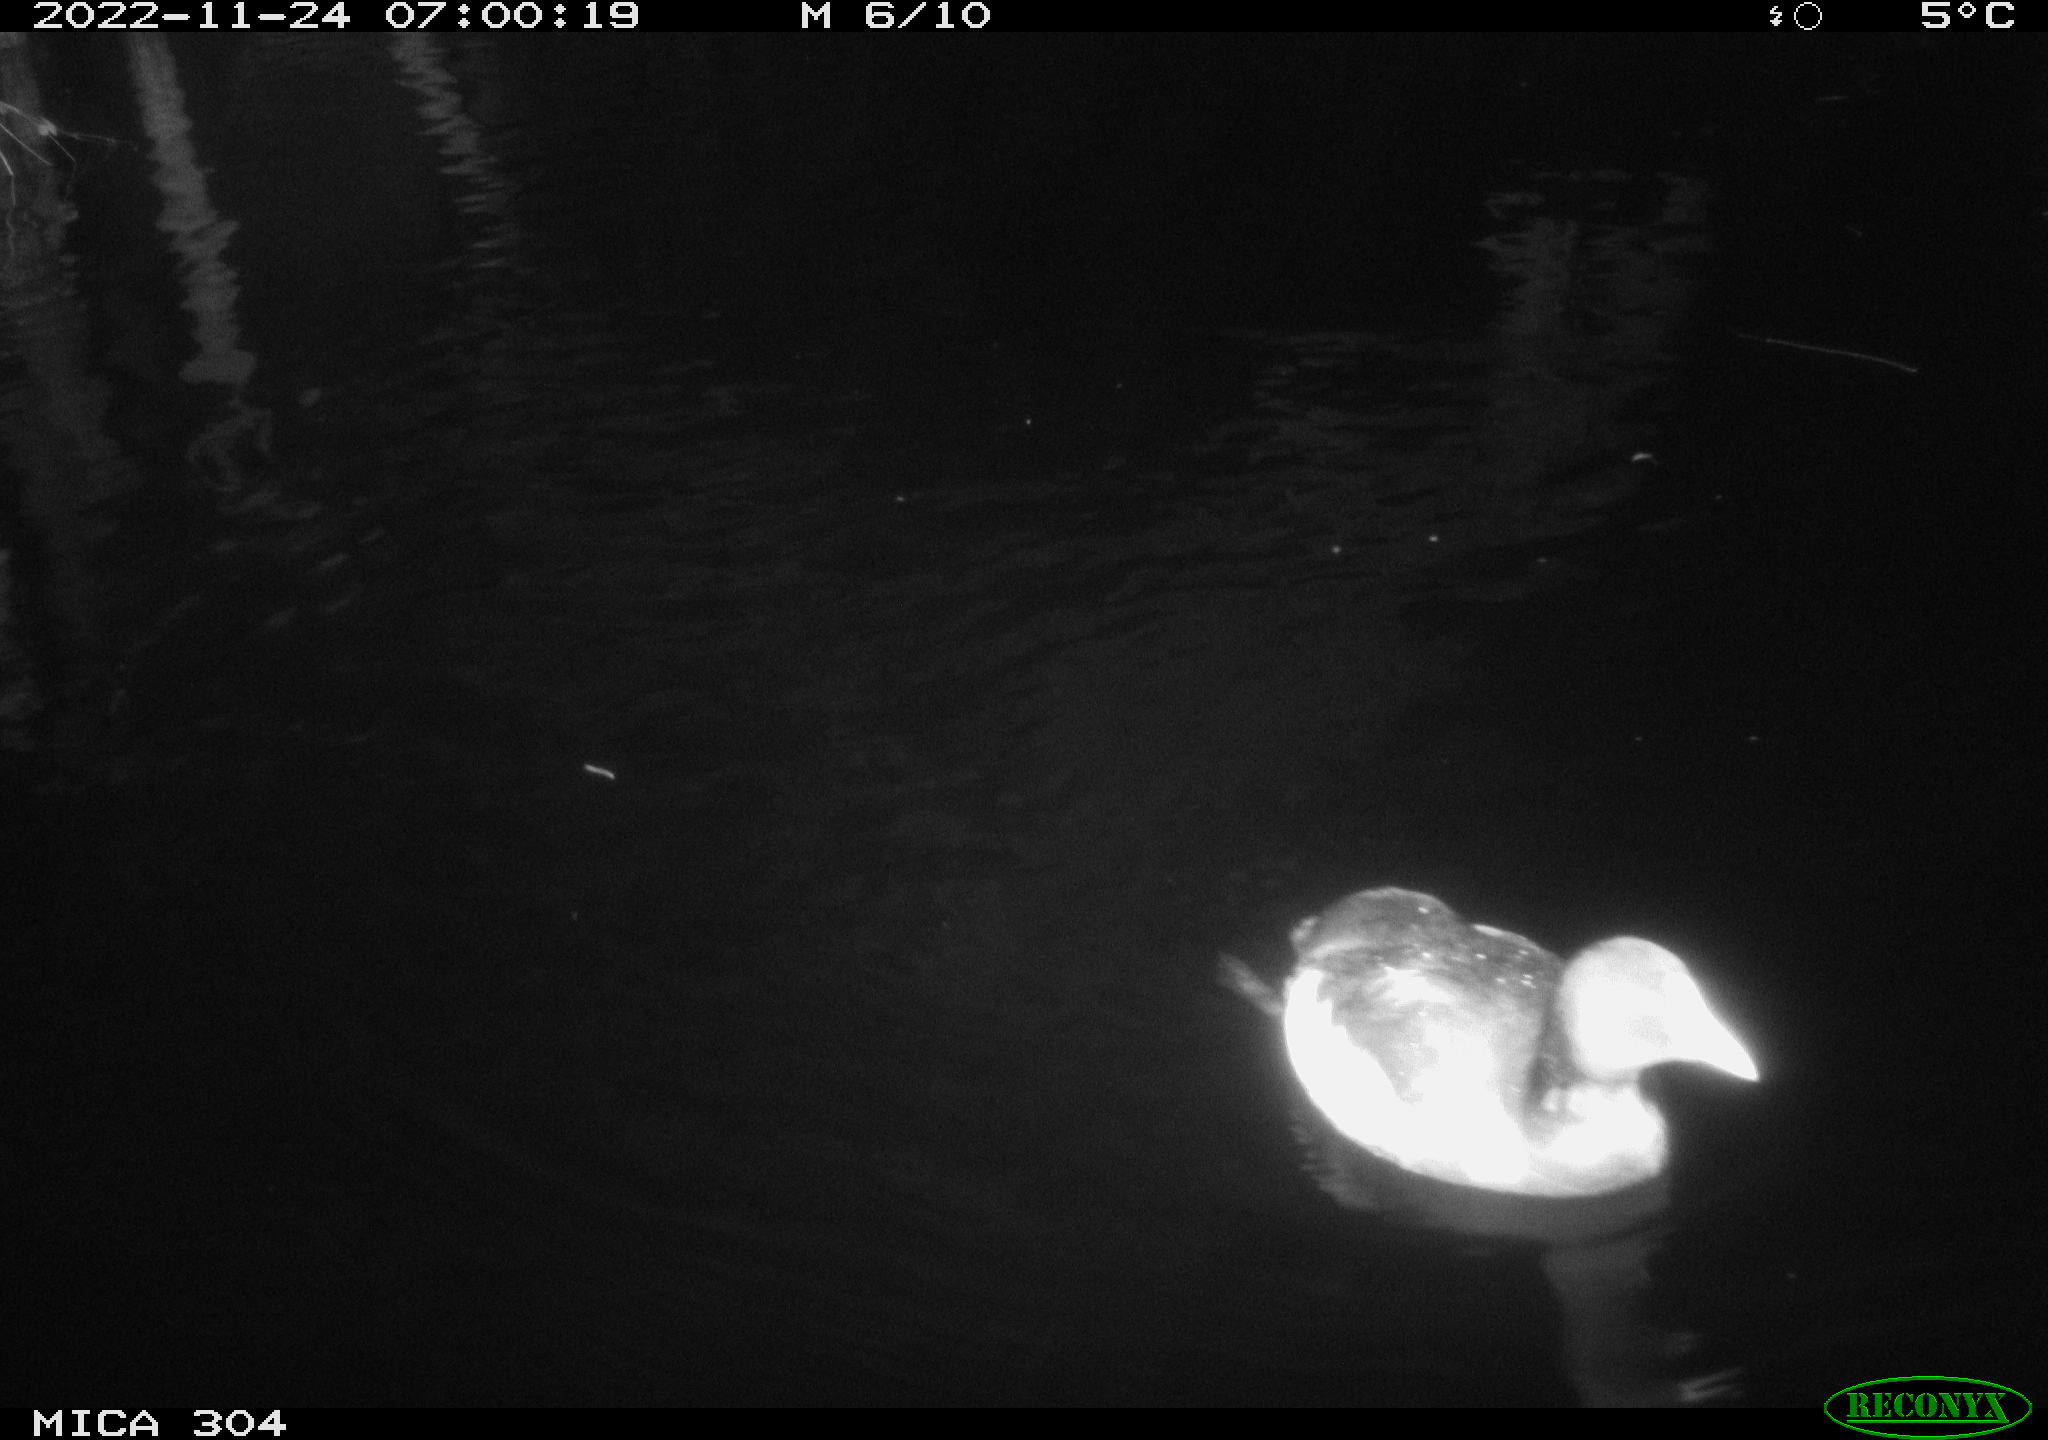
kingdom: Animalia
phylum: Chordata
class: Aves
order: Anseriformes
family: Anatidae
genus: Anas
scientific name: Anas
